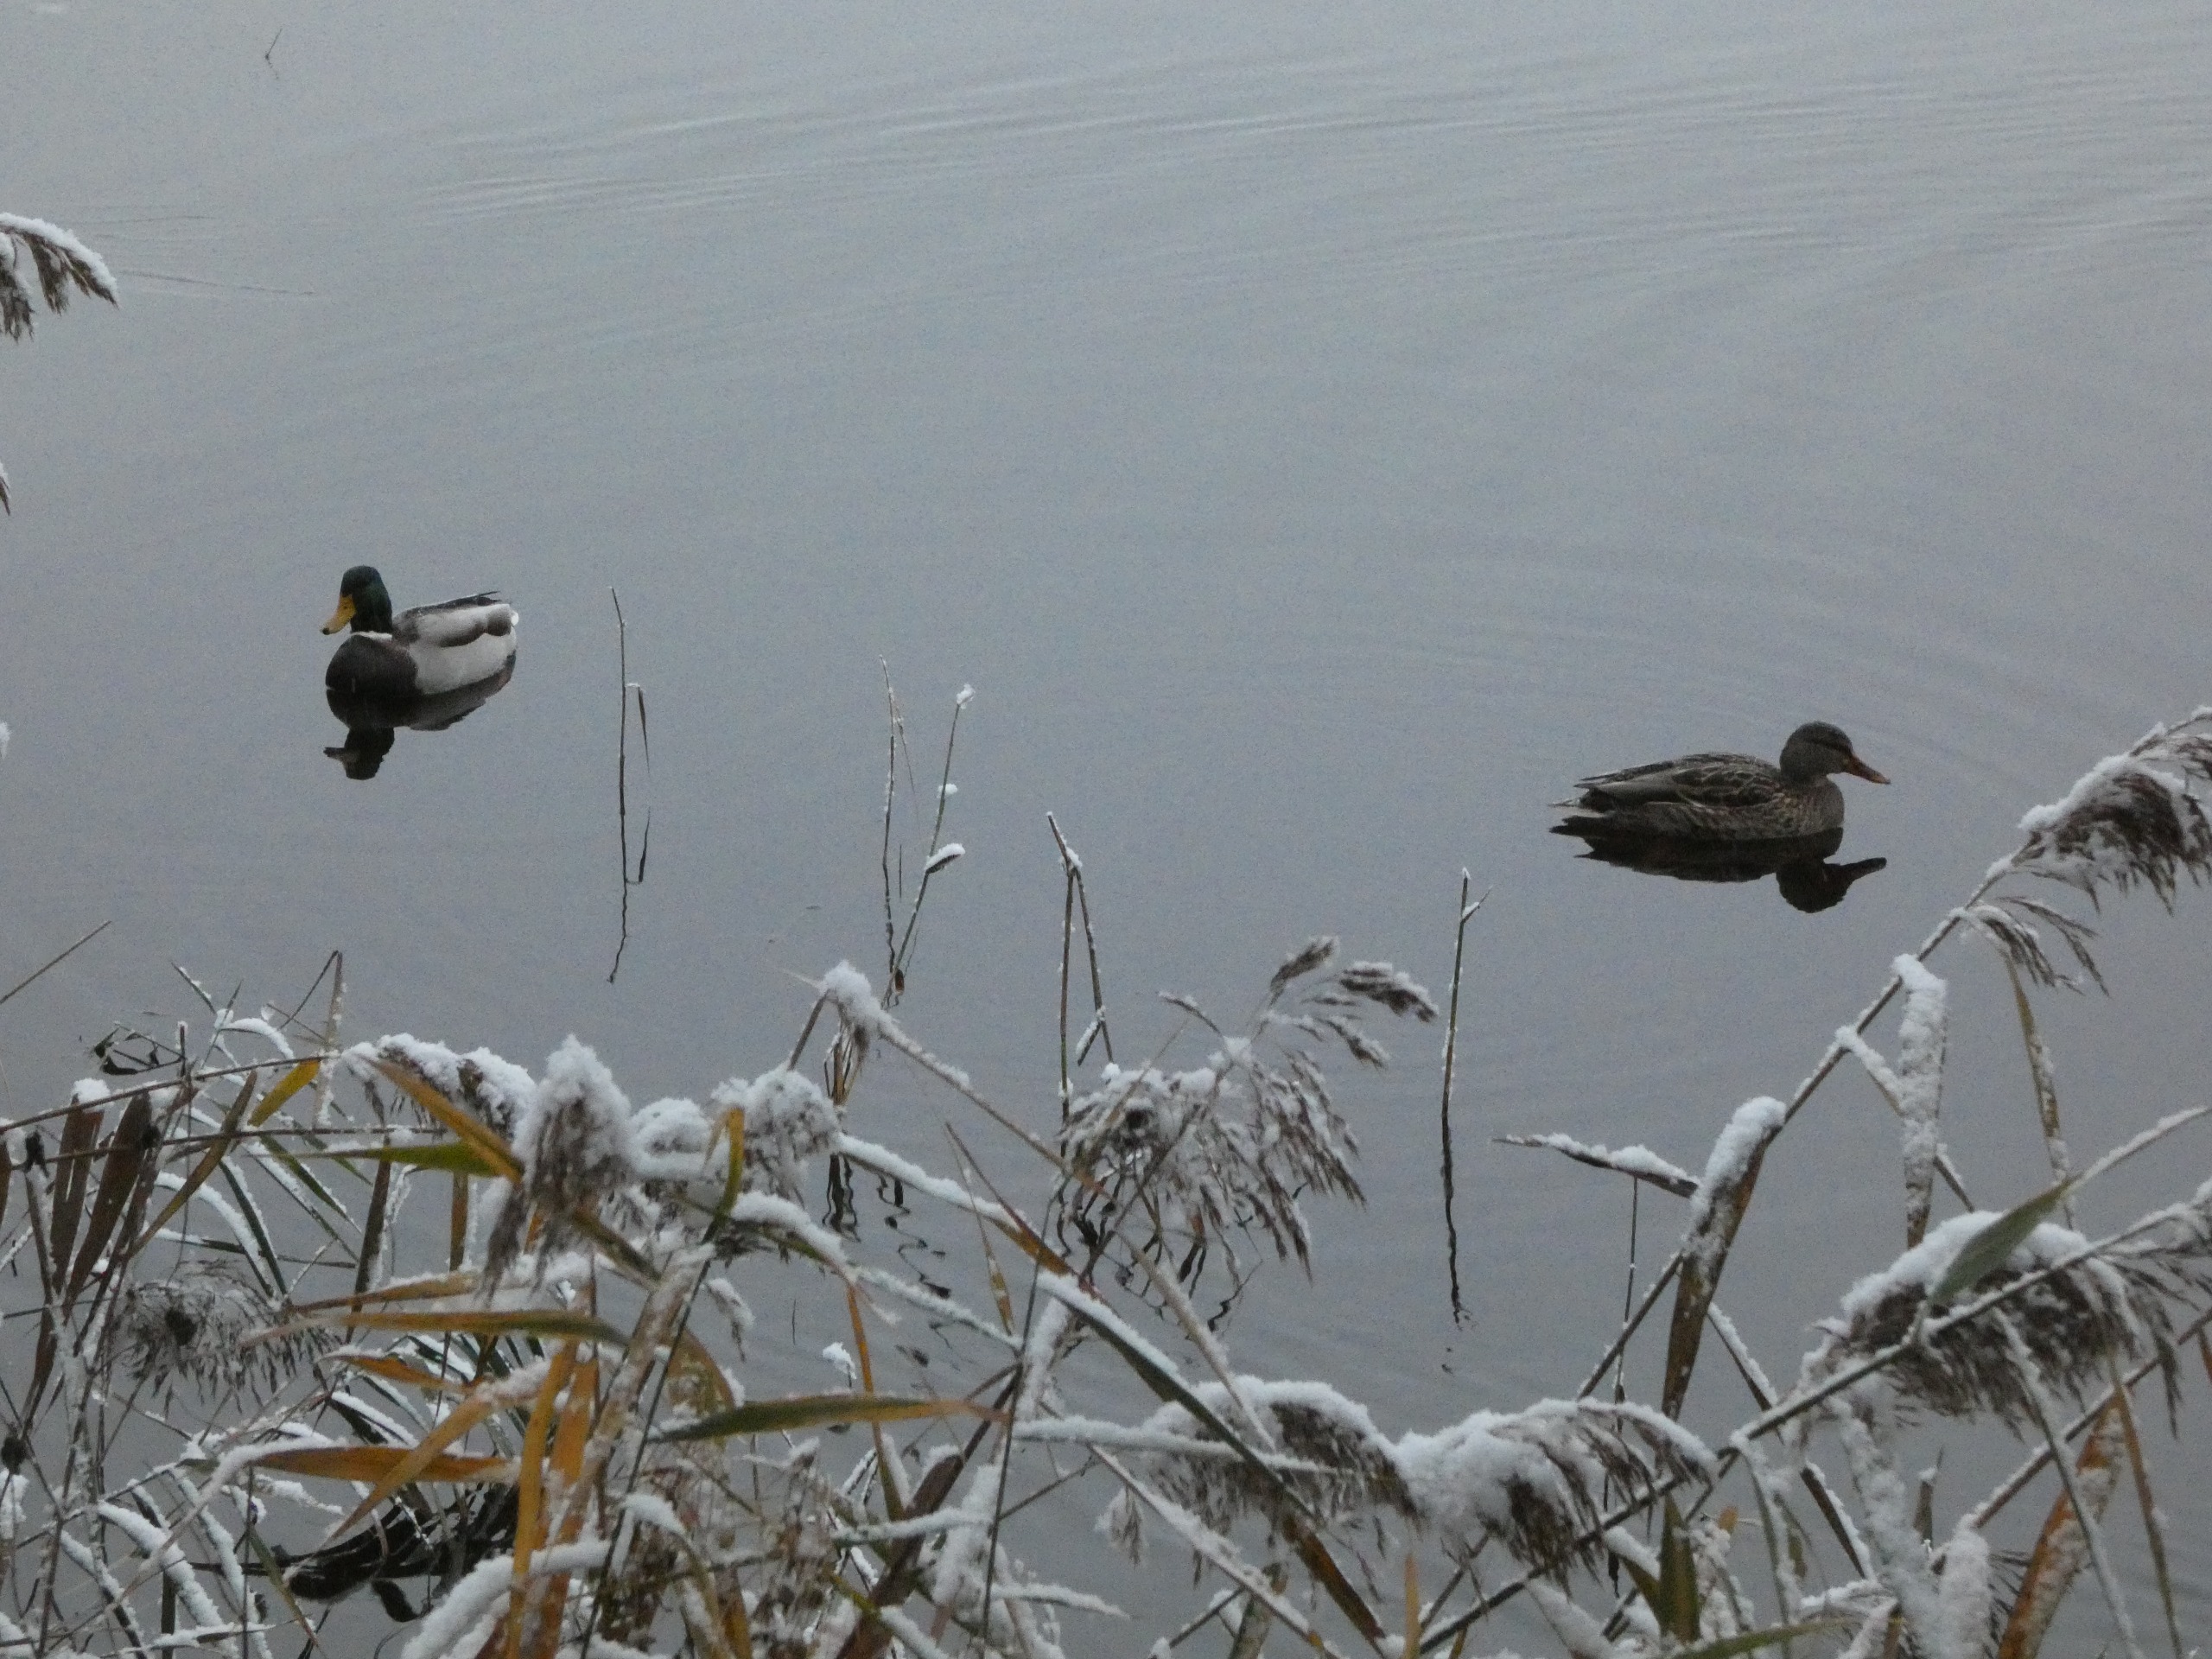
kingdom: Animalia
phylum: Chordata
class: Aves
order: Anseriformes
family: Anatidae
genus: Anas
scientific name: Anas platyrhynchos
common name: Gråand
